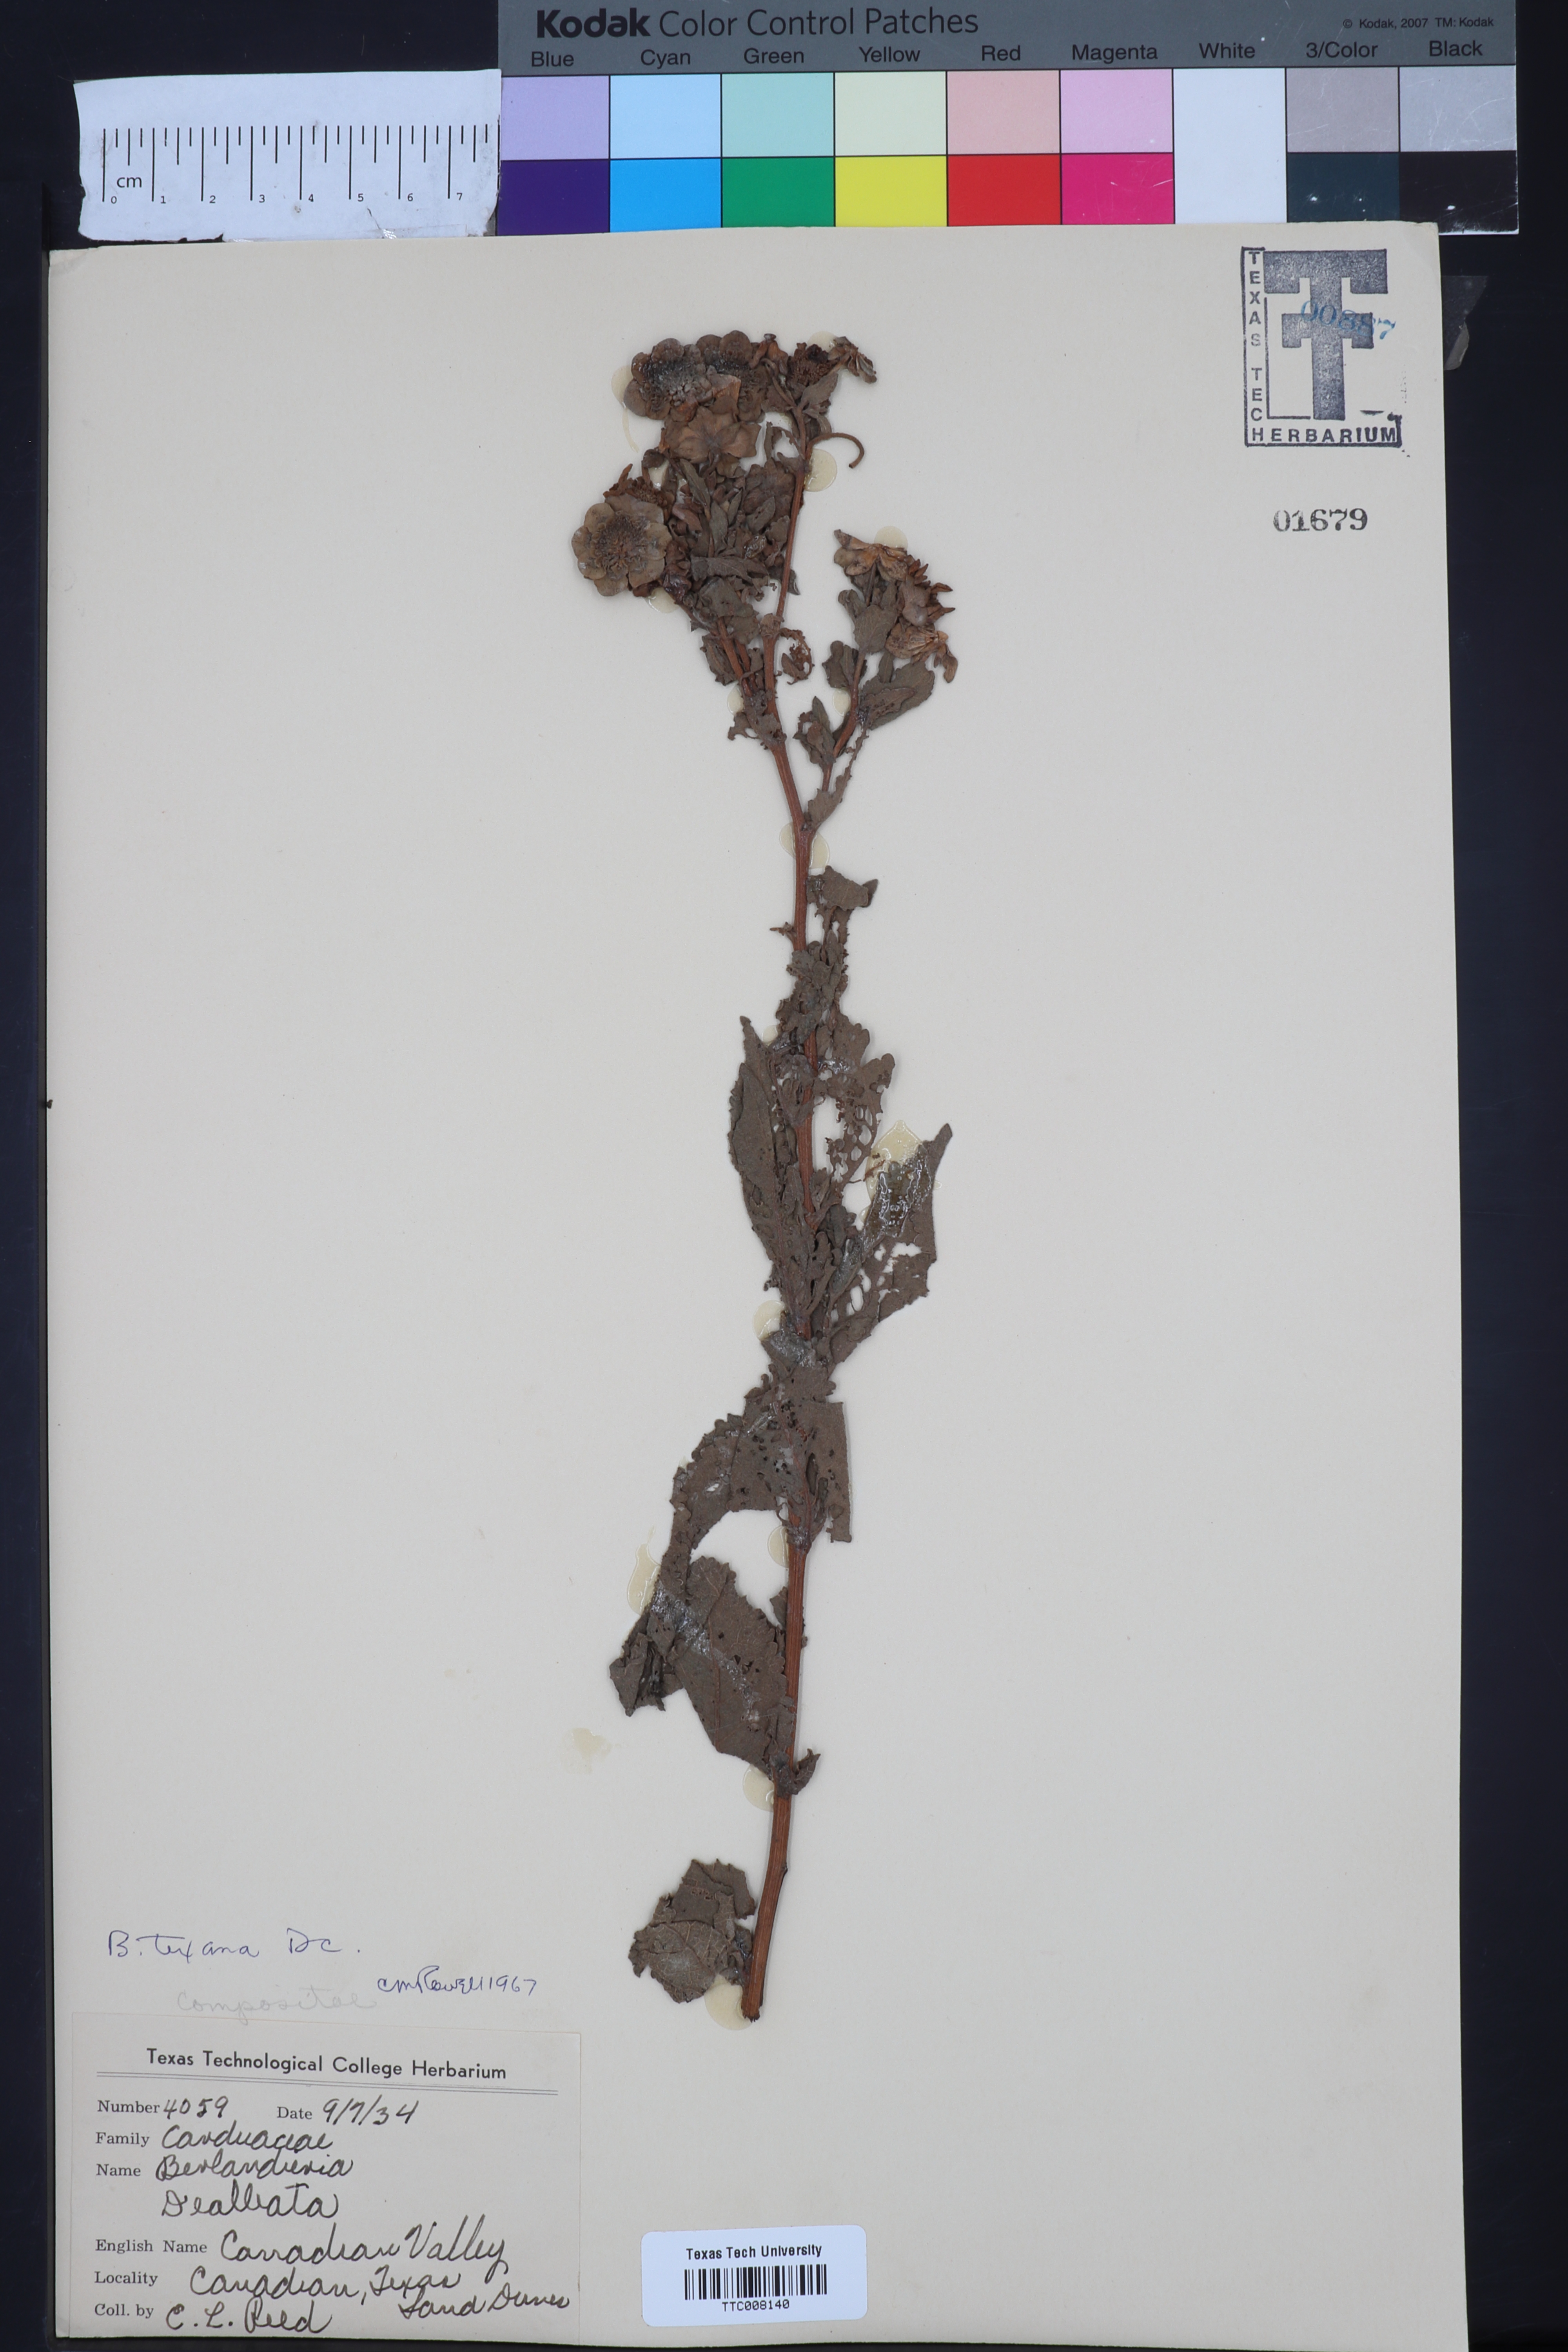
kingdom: Plantae
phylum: Tracheophyta
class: Magnoliopsida
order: Asterales
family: Asteraceae
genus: Berlandiera
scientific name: Berlandiera texana
